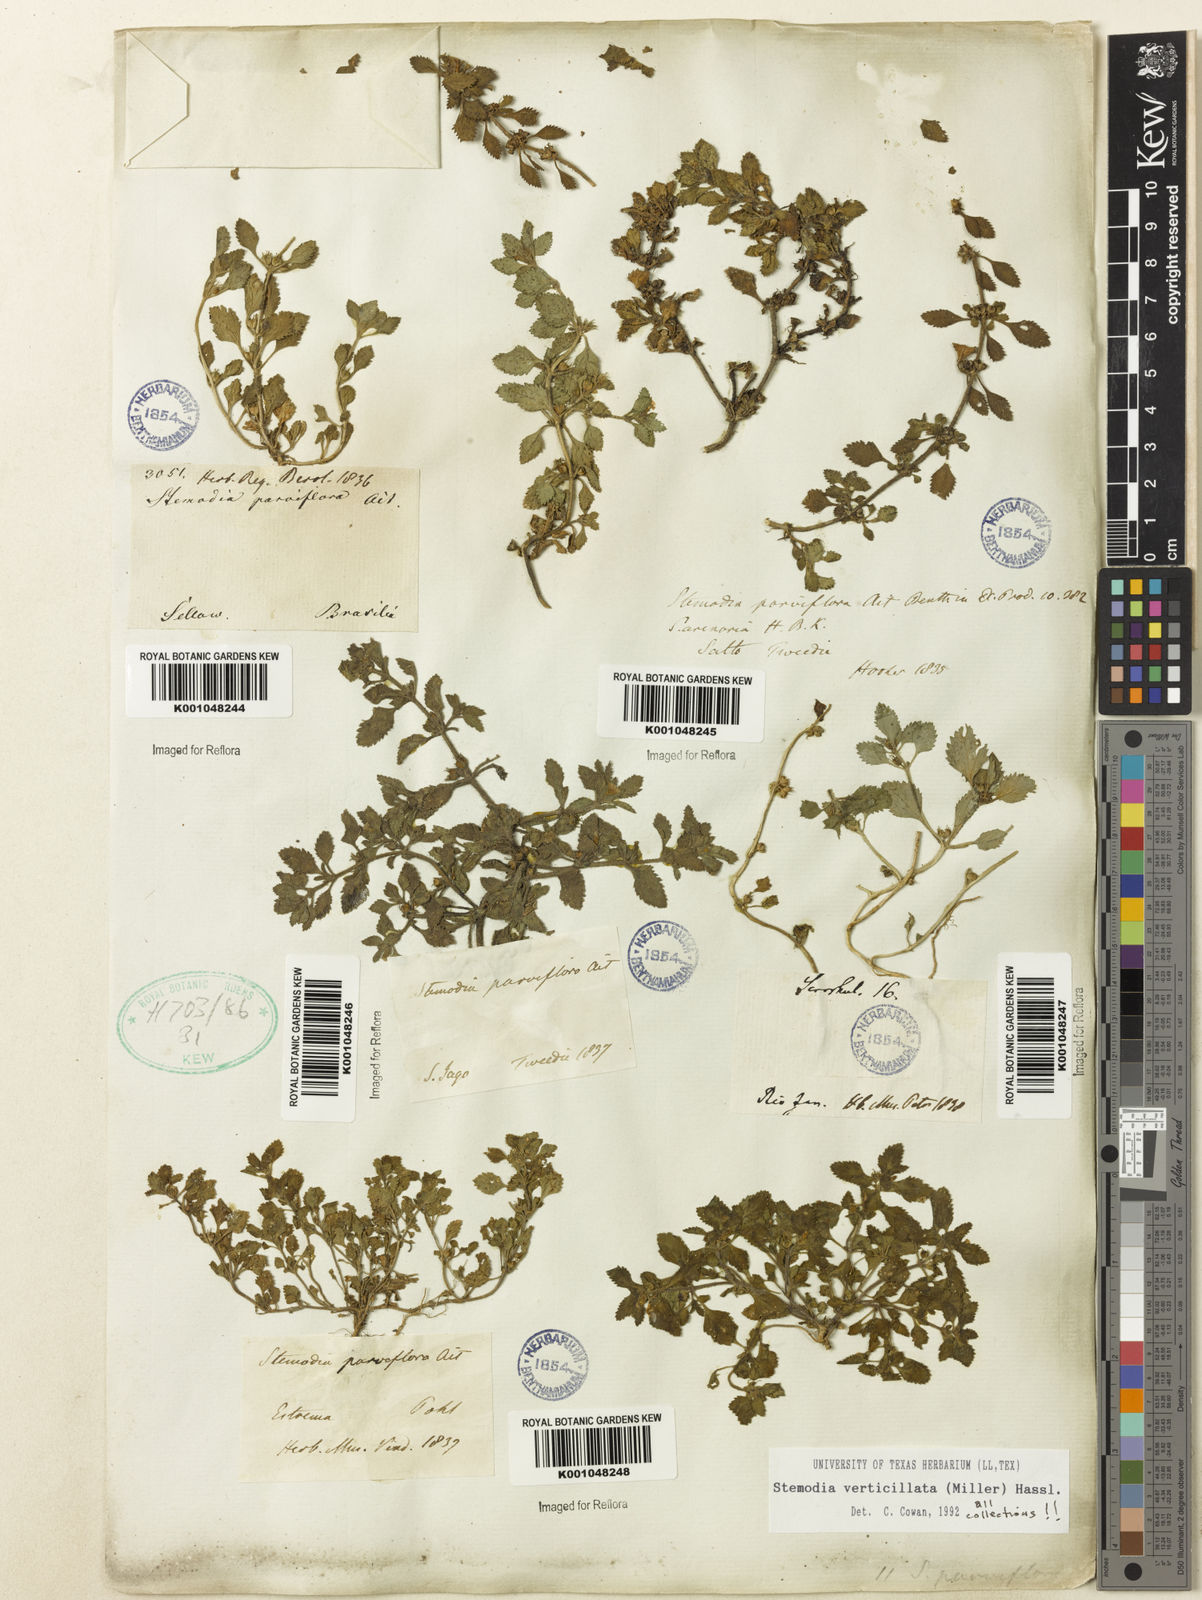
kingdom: Plantae
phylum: Tracheophyta
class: Magnoliopsida
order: Lamiales
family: Plantaginaceae
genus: Stemodia
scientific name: Stemodia verticillata
